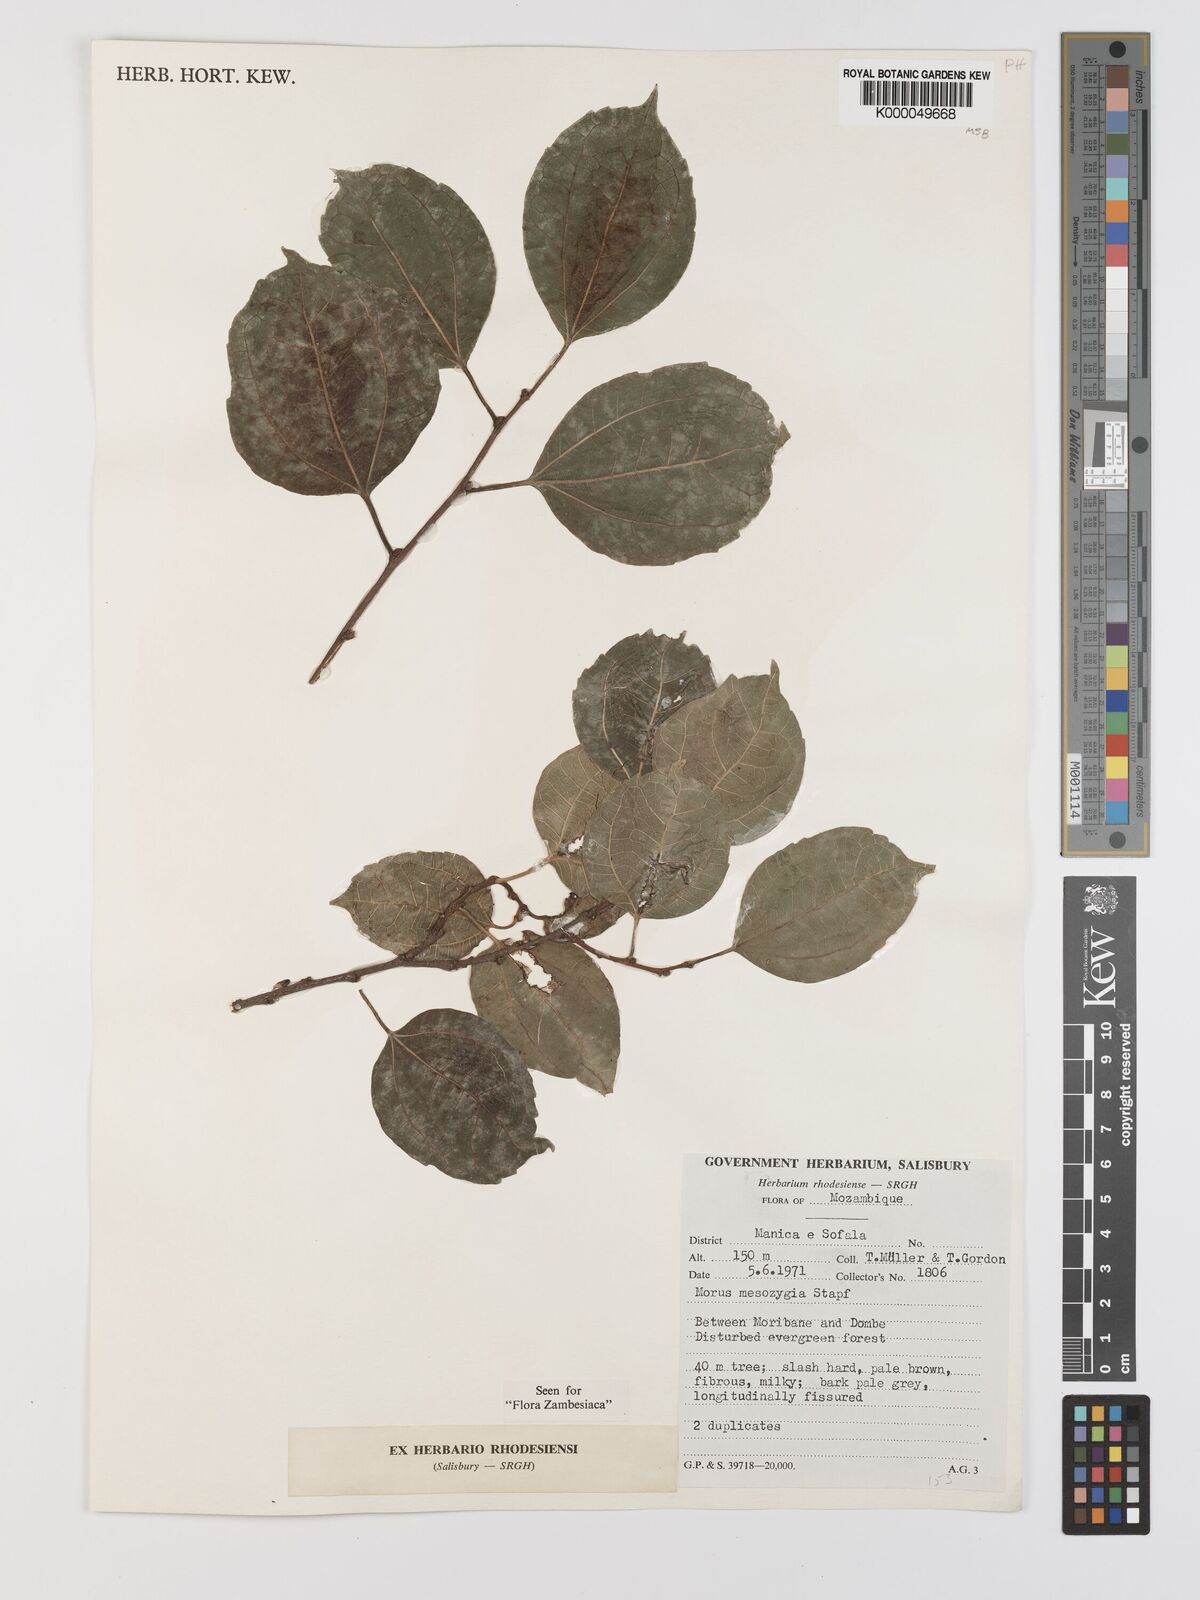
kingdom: Plantae
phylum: Tracheophyta
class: Magnoliopsida
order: Rosales
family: Moraceae
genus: Afromorus
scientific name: Afromorus mesozygia
